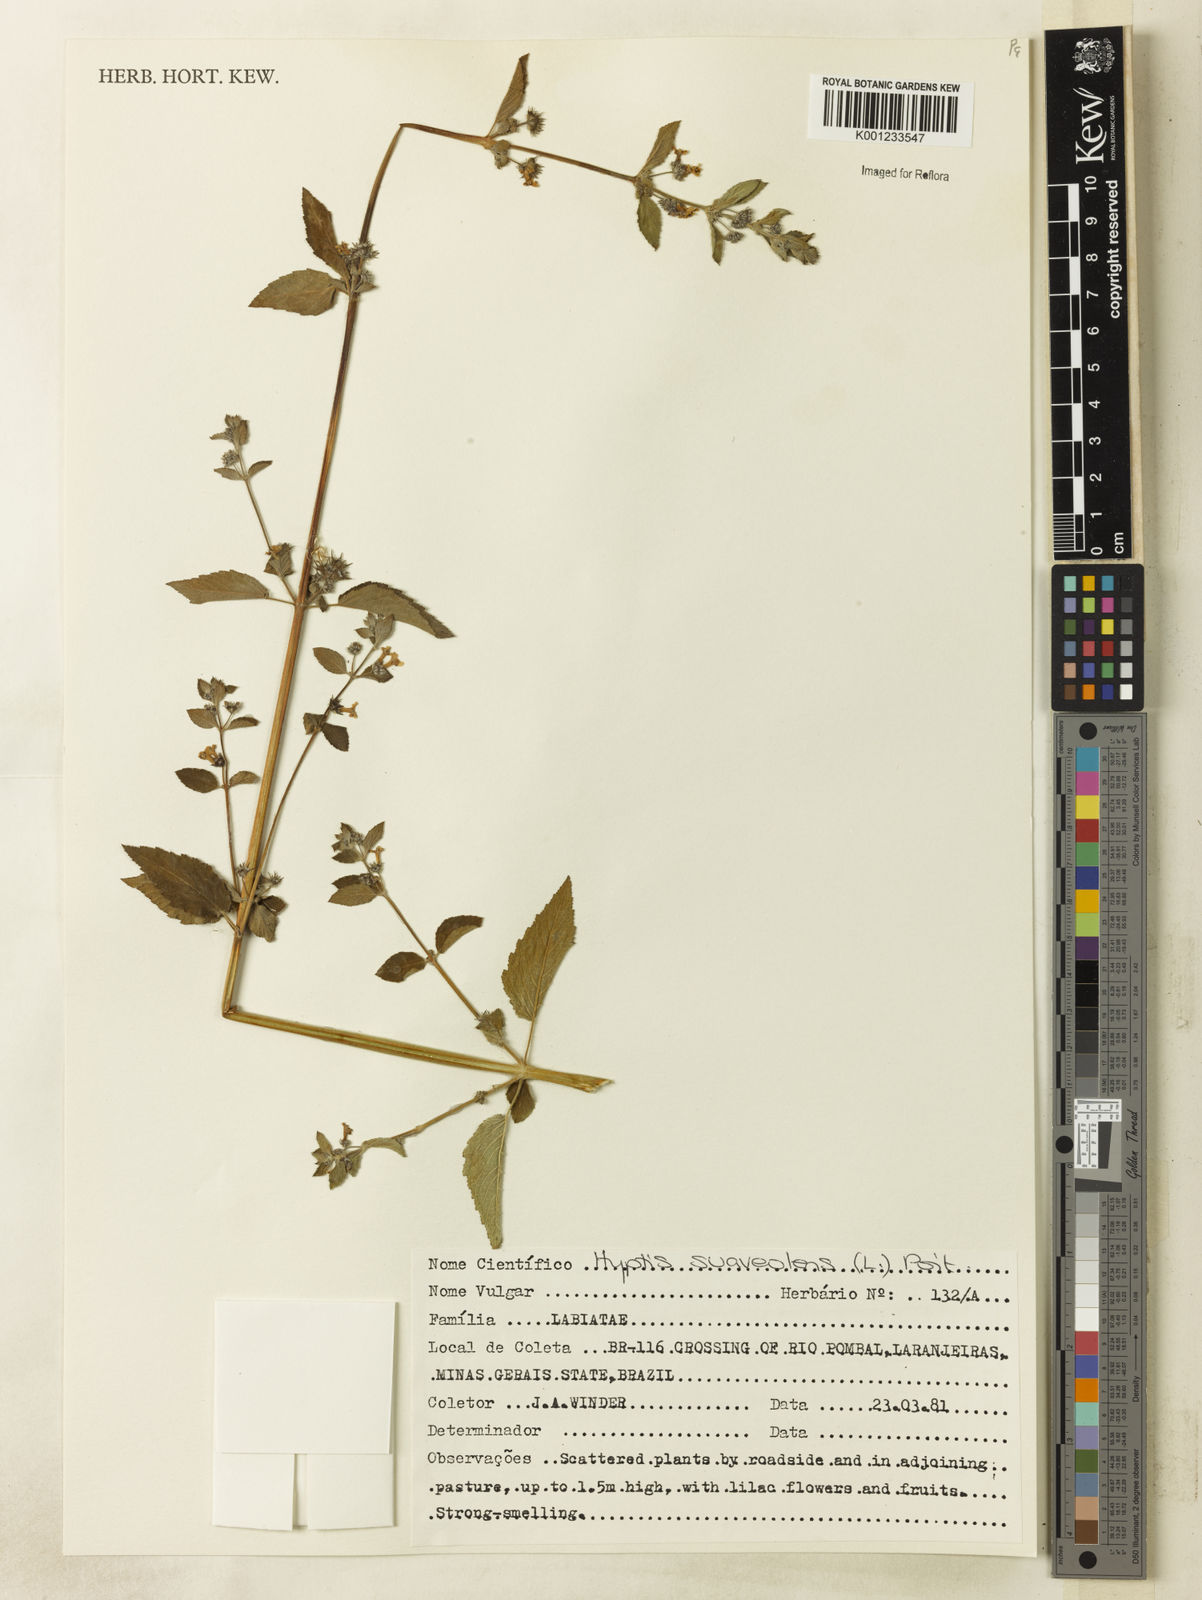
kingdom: Plantae
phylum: Tracheophyta
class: Magnoliopsida
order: Lamiales
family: Lamiaceae
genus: Mesosphaerum
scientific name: Mesosphaerum suaveolens
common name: Pignut
